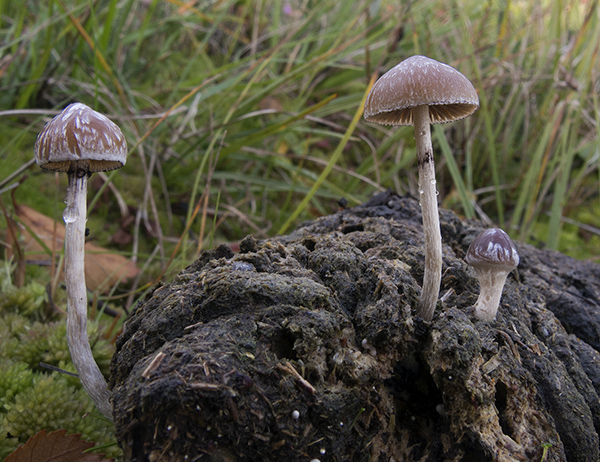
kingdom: Fungi
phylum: Basidiomycota
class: Agaricomycetes
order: Agaricales
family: Hymenogastraceae
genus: Psilocybe
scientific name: Psilocybe fimetaria
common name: prægtig nøgenhat
